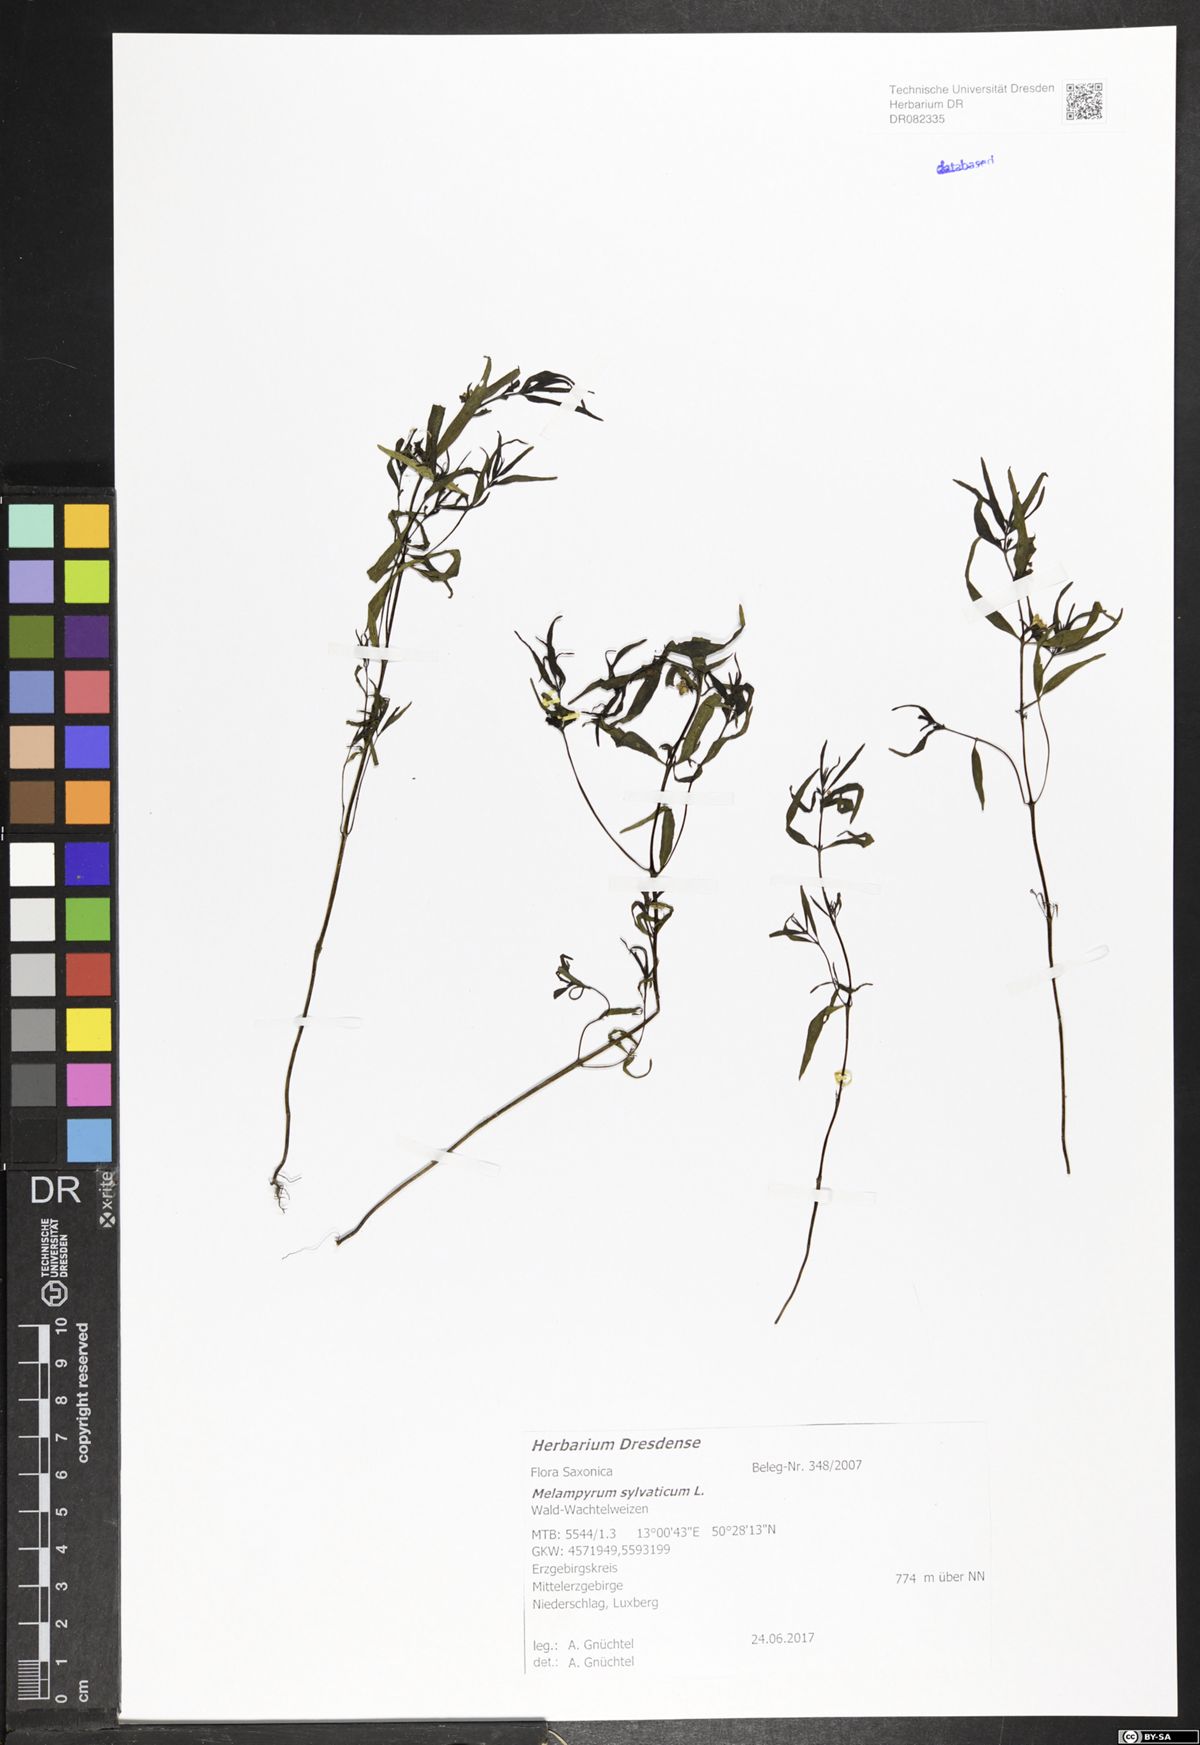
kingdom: Plantae
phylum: Tracheophyta
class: Magnoliopsida
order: Lamiales
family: Orobanchaceae
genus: Melampyrum
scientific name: Melampyrum sylvaticum
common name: Small cow-wheat
